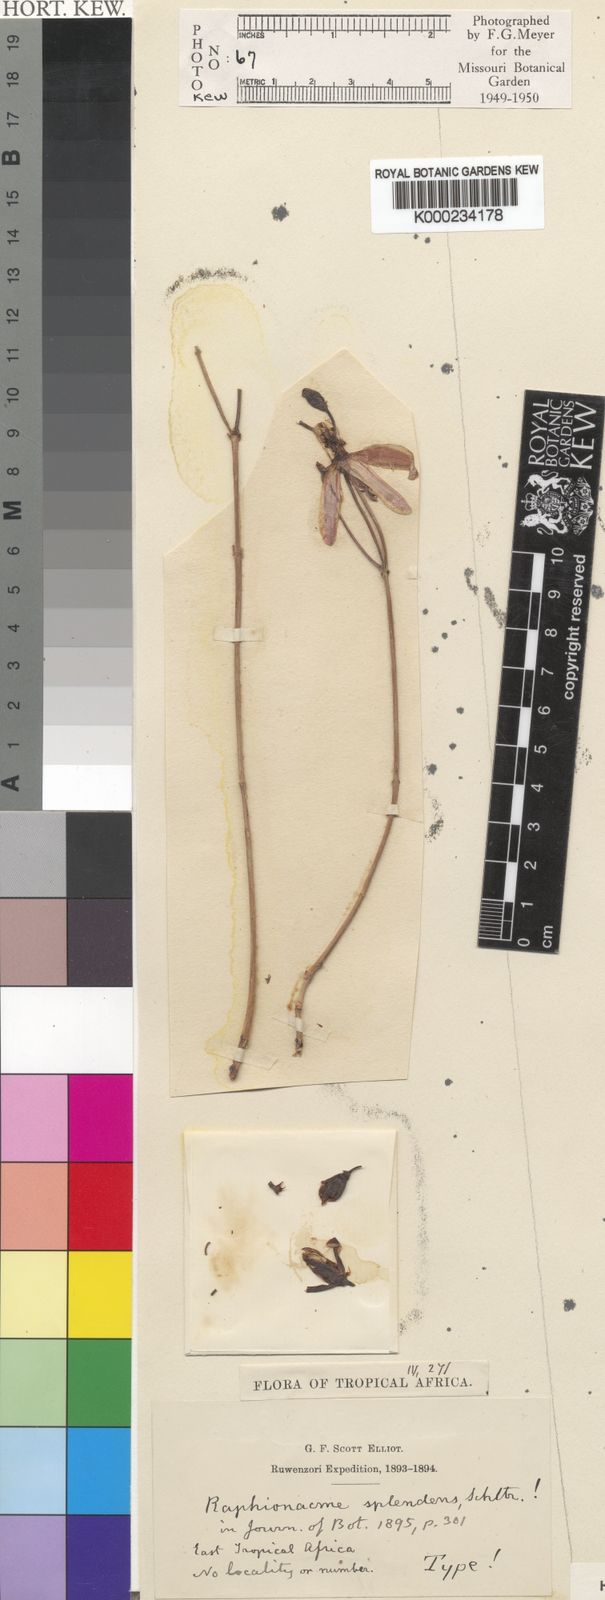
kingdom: Plantae
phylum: Tracheophyta
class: Magnoliopsida
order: Gentianales
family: Apocynaceae
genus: Raphionacme
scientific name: Raphionacme splendens
